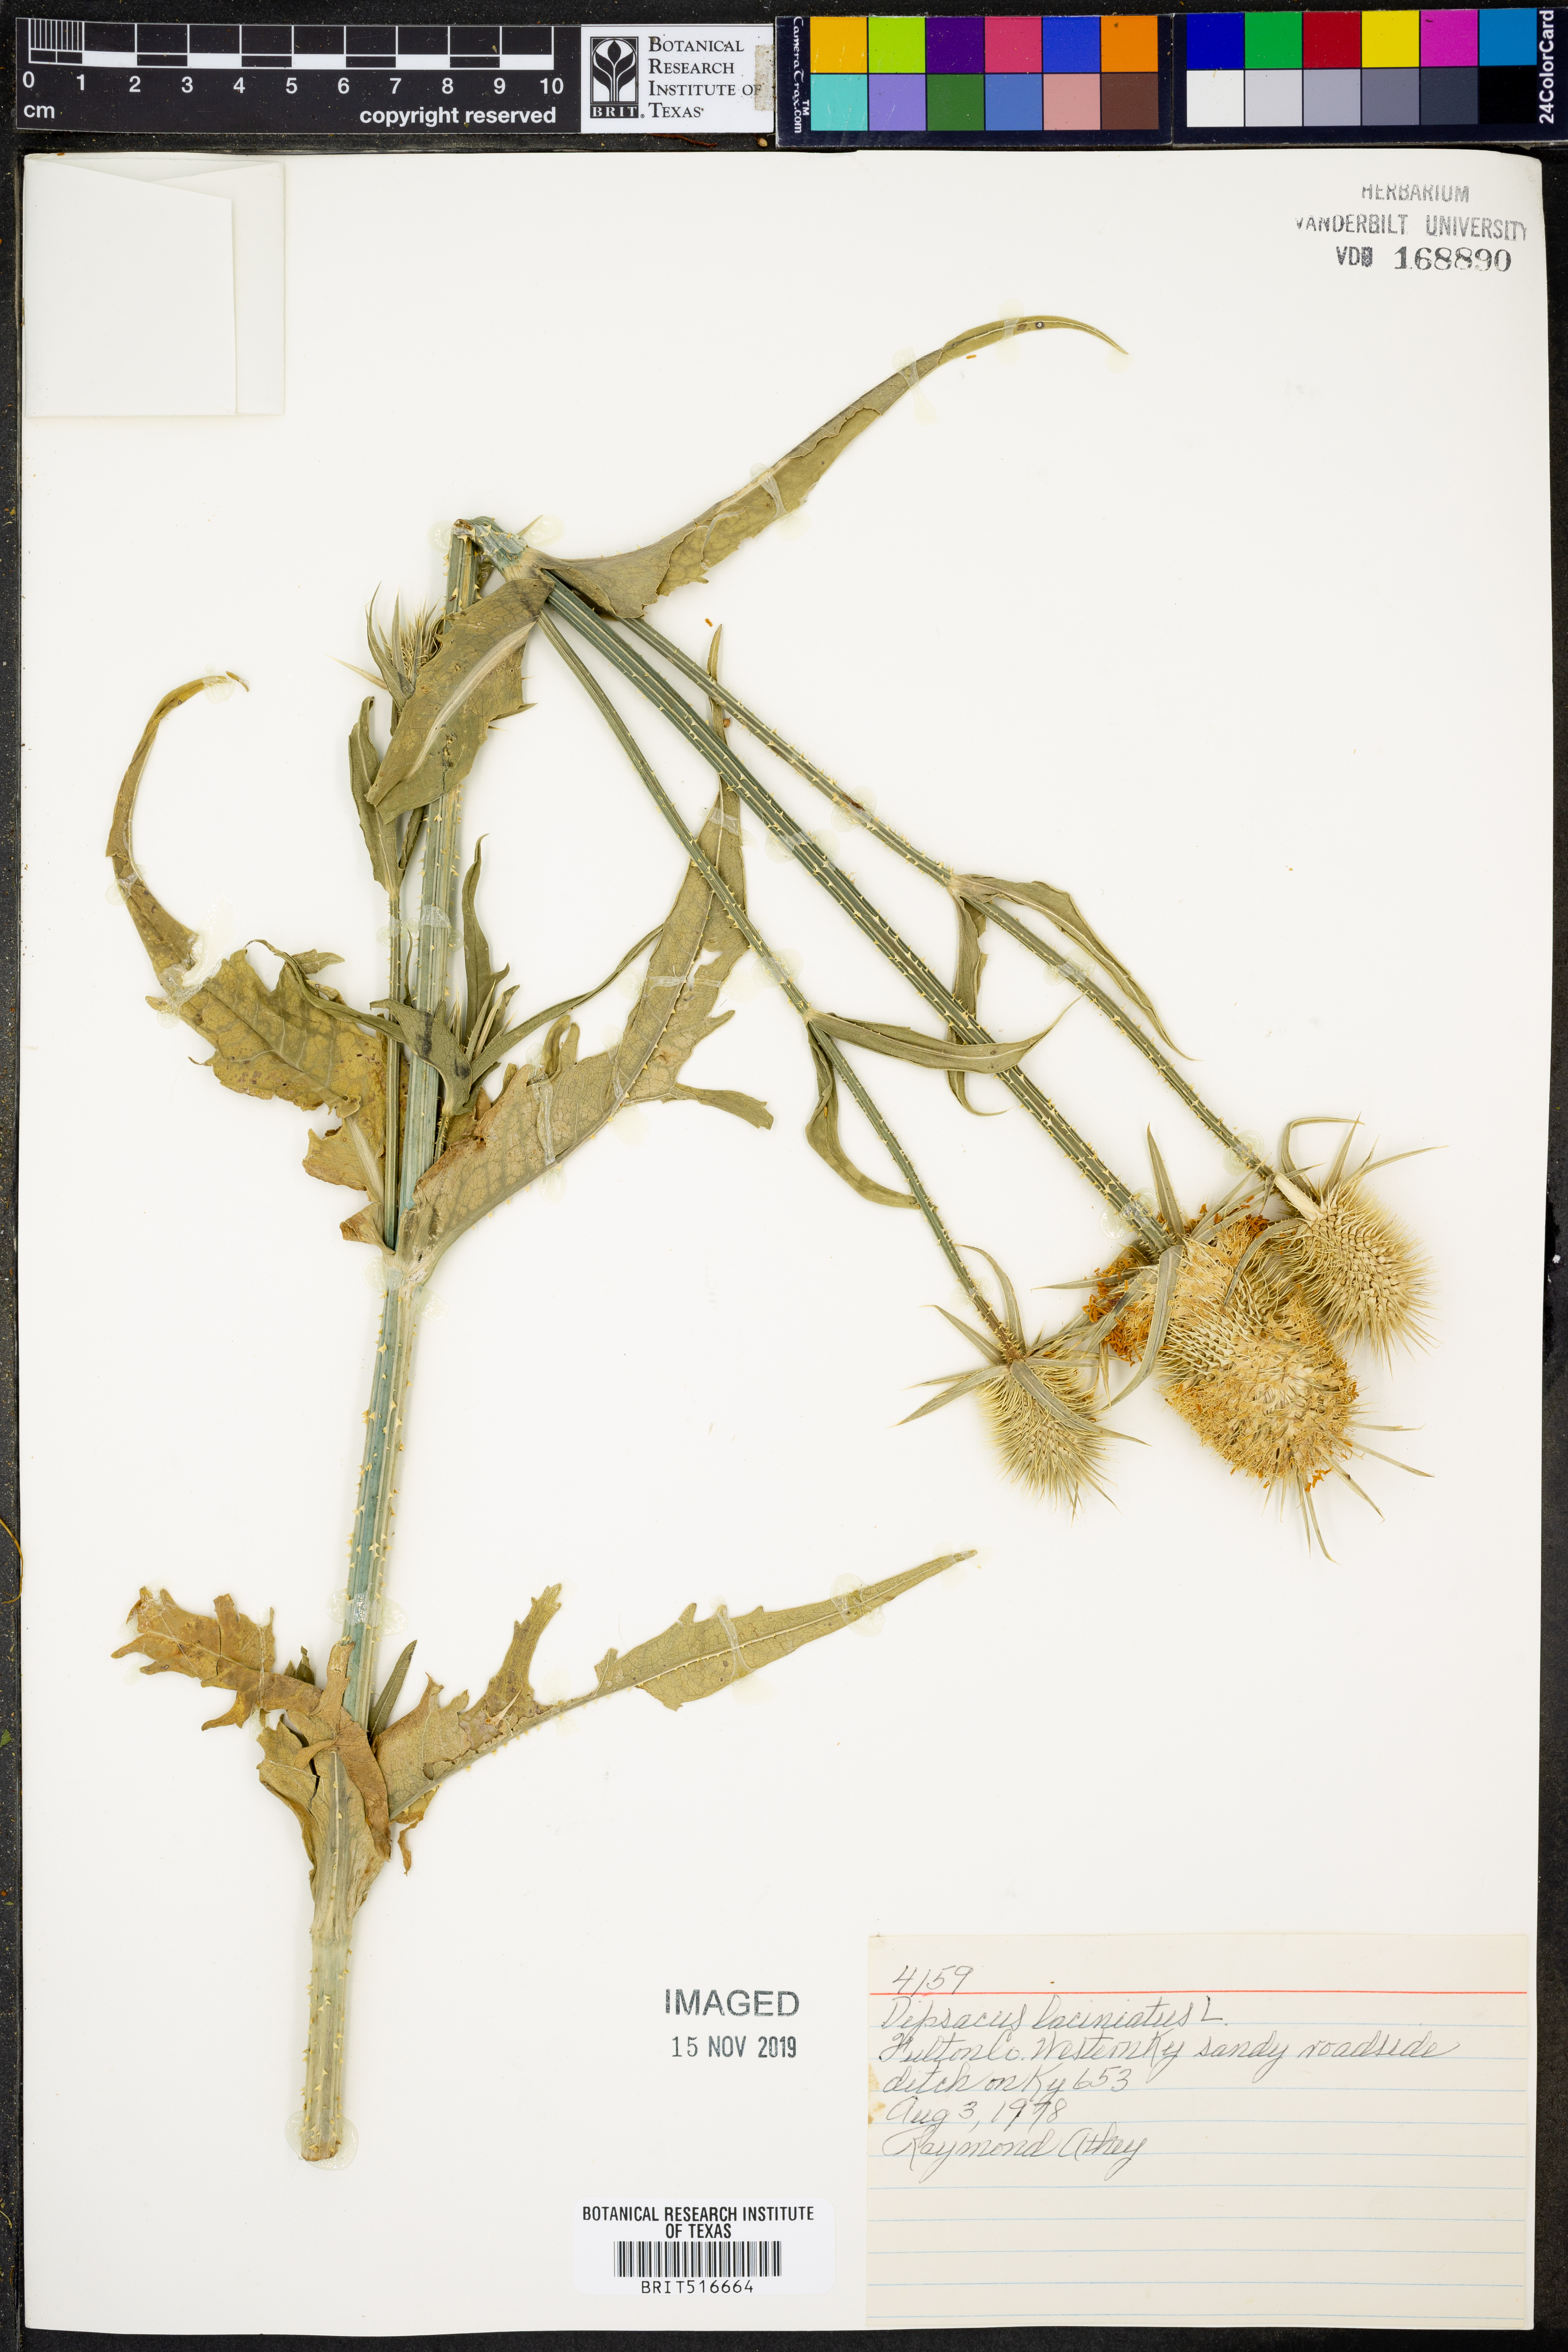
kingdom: Plantae
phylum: Tracheophyta
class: Magnoliopsida
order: Dipsacales
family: Caprifoliaceae
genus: Dipsacus
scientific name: Dipsacus laciniatus
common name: Cut-leaved teasel
